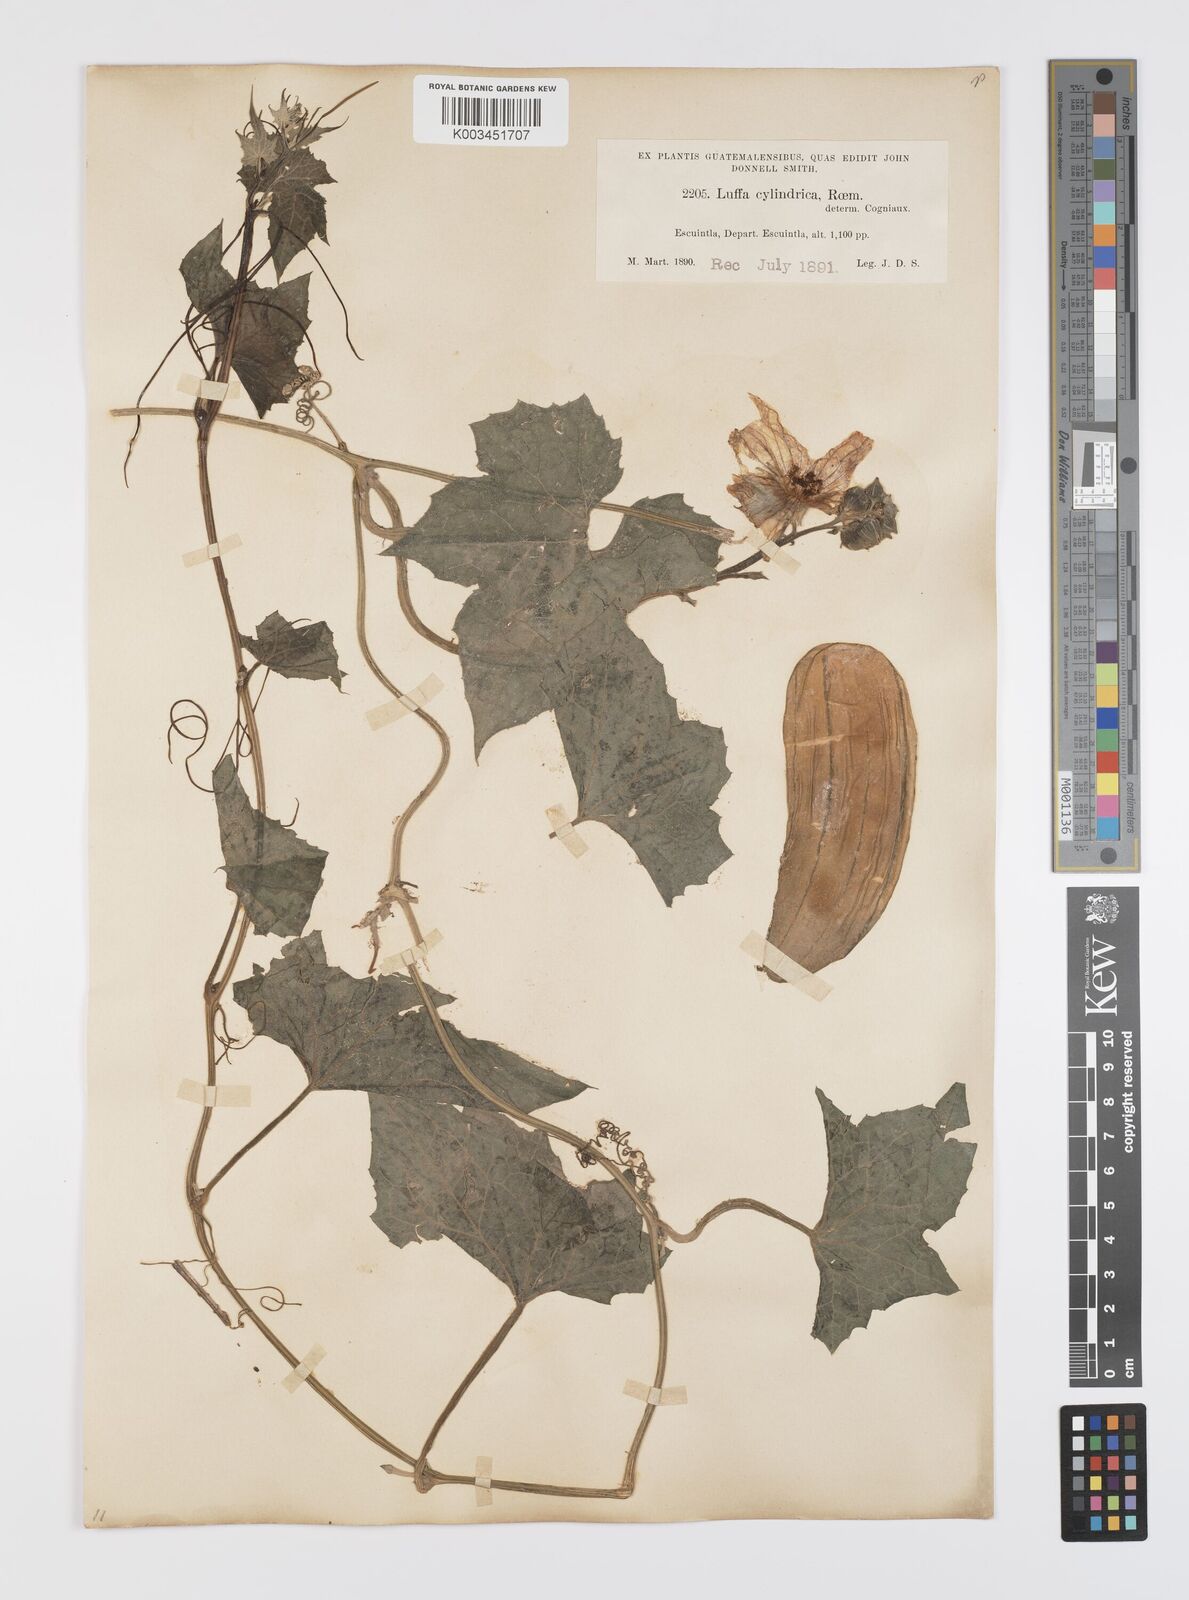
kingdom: Plantae
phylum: Tracheophyta
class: Magnoliopsida
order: Cucurbitales
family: Cucurbitaceae
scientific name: Cucurbitaceae
